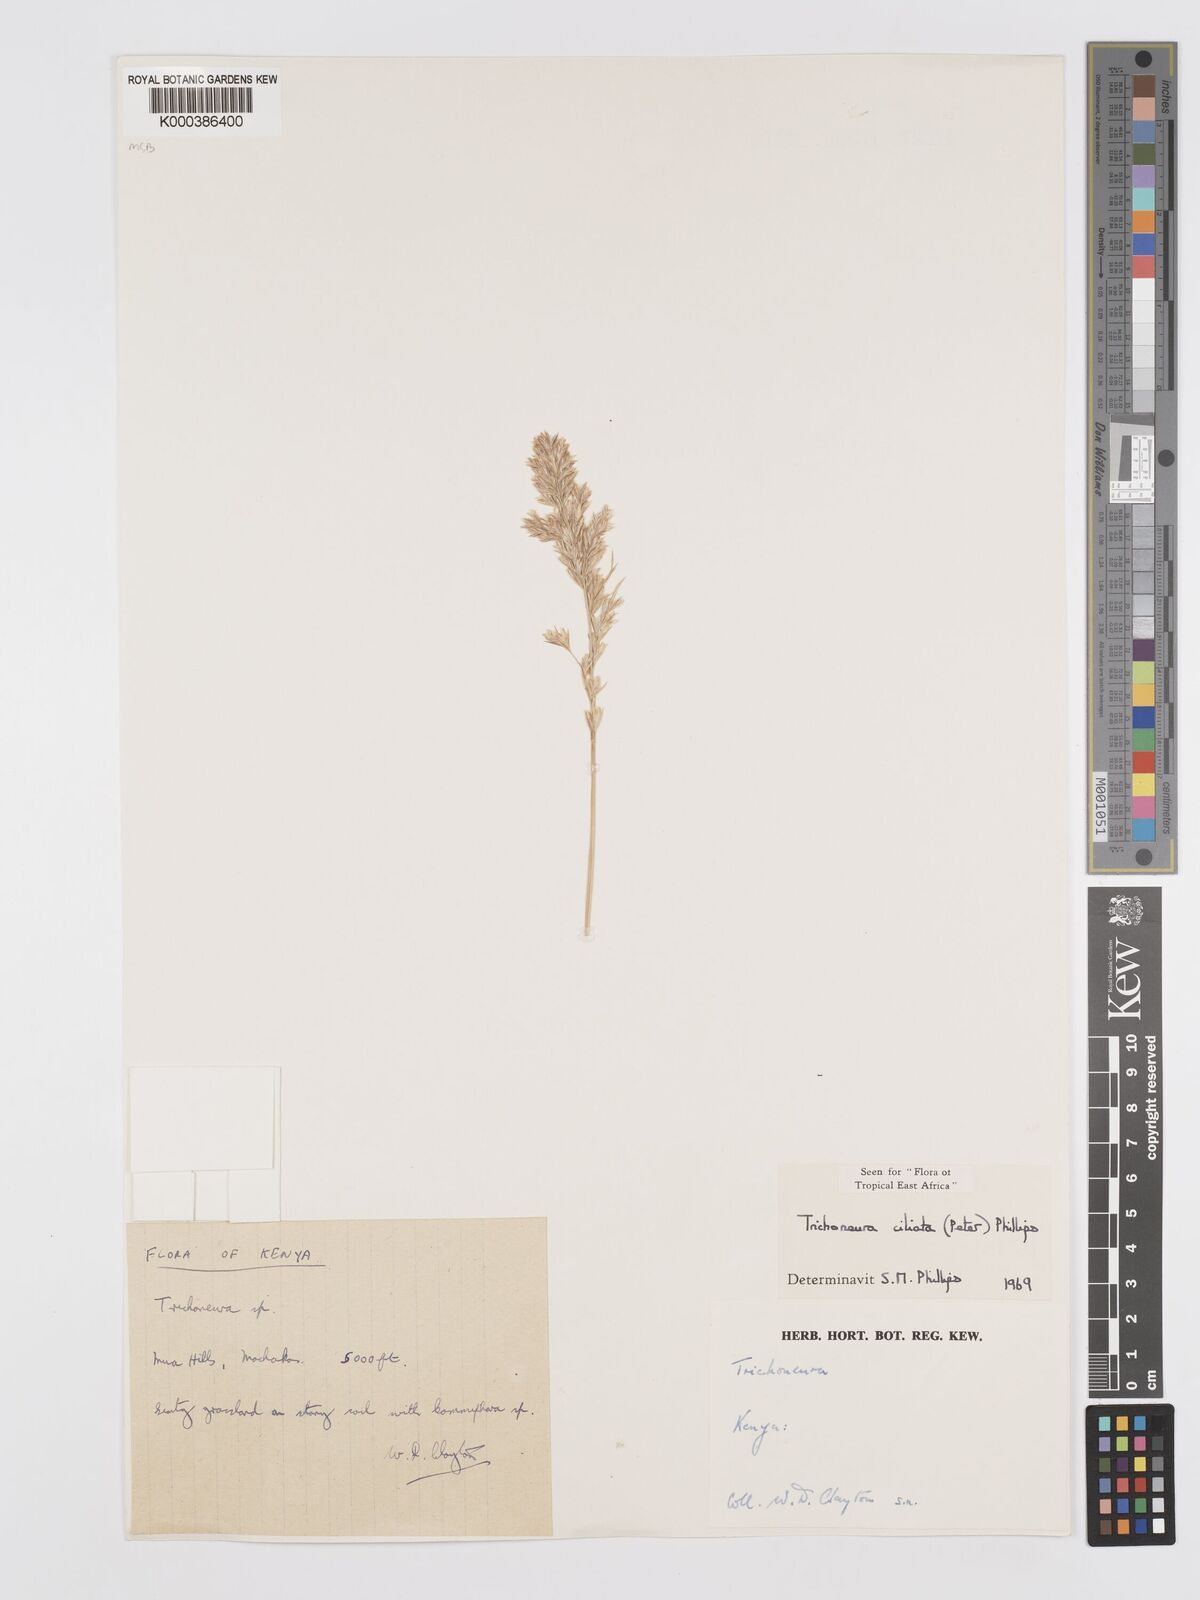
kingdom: Plantae
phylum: Tracheophyta
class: Liliopsida
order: Poales
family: Poaceae
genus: Trichoneura
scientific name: Trichoneura ciliata
